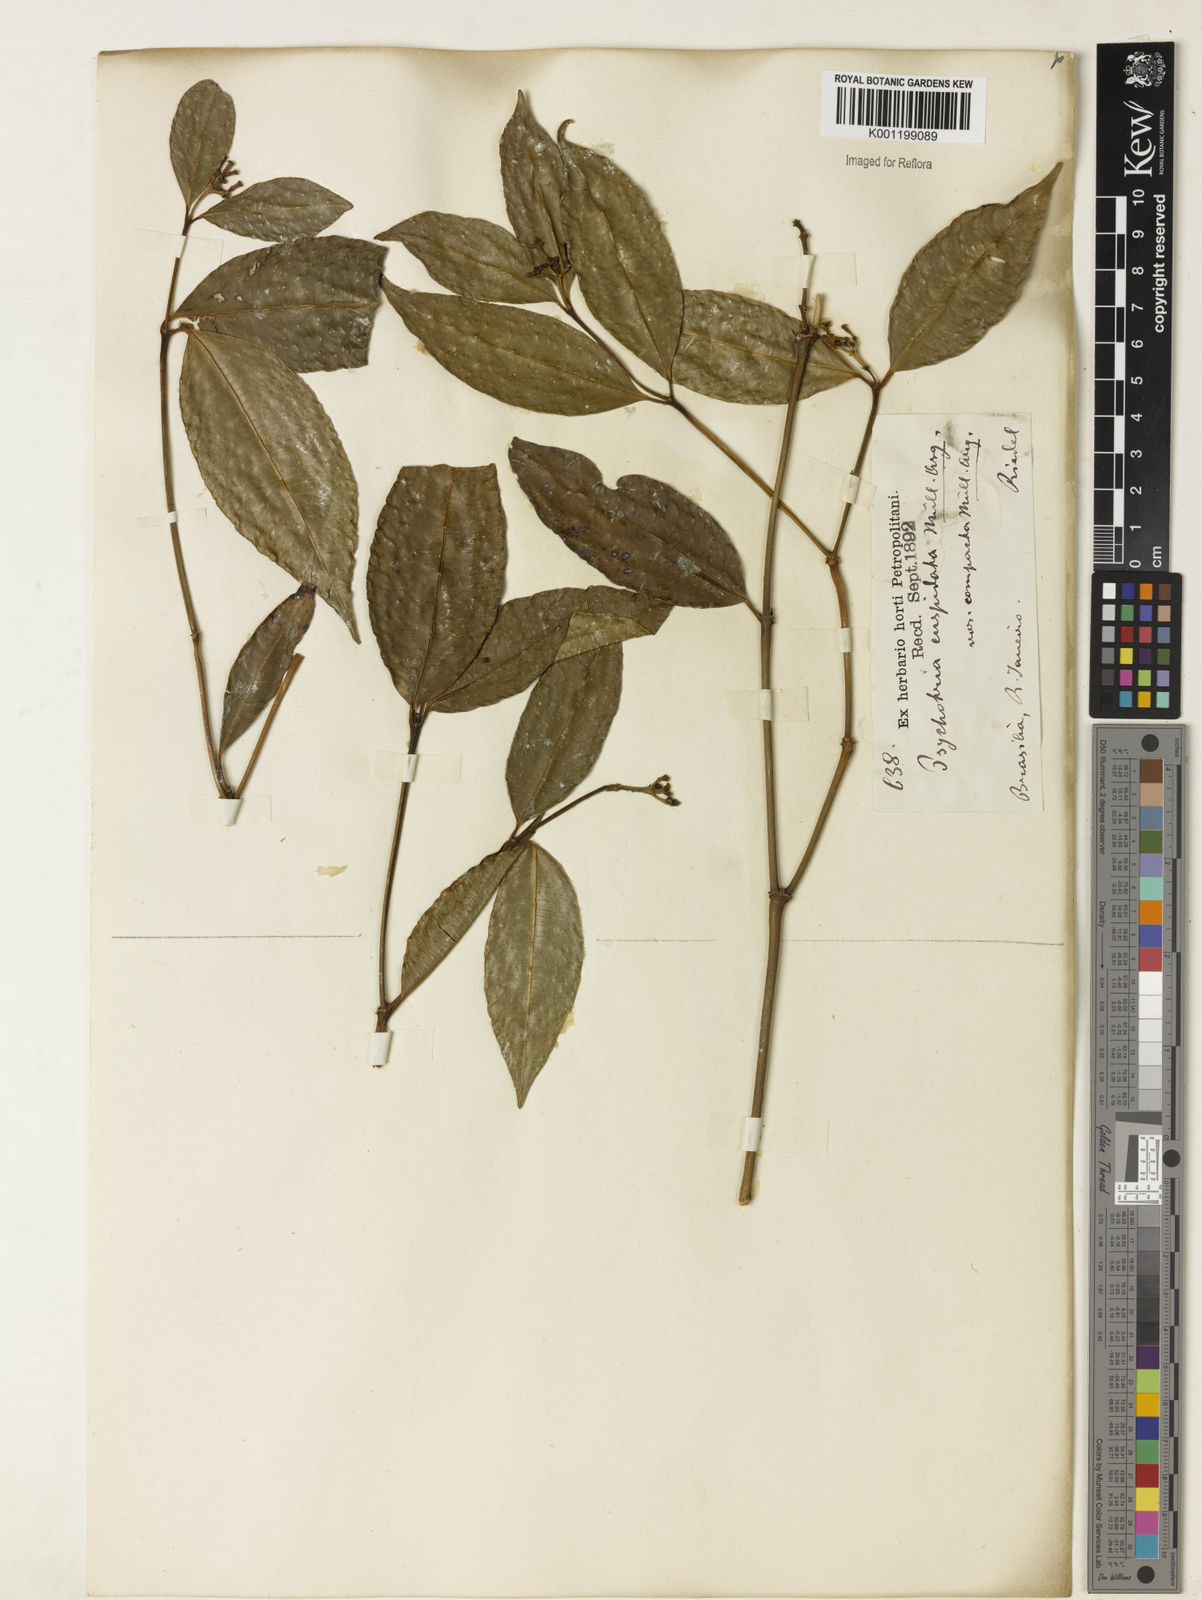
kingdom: Plantae
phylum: Tracheophyta
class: Magnoliopsida
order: Gentianales
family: Rubiaceae
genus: Palicourea
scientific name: Palicourea cuspidata
